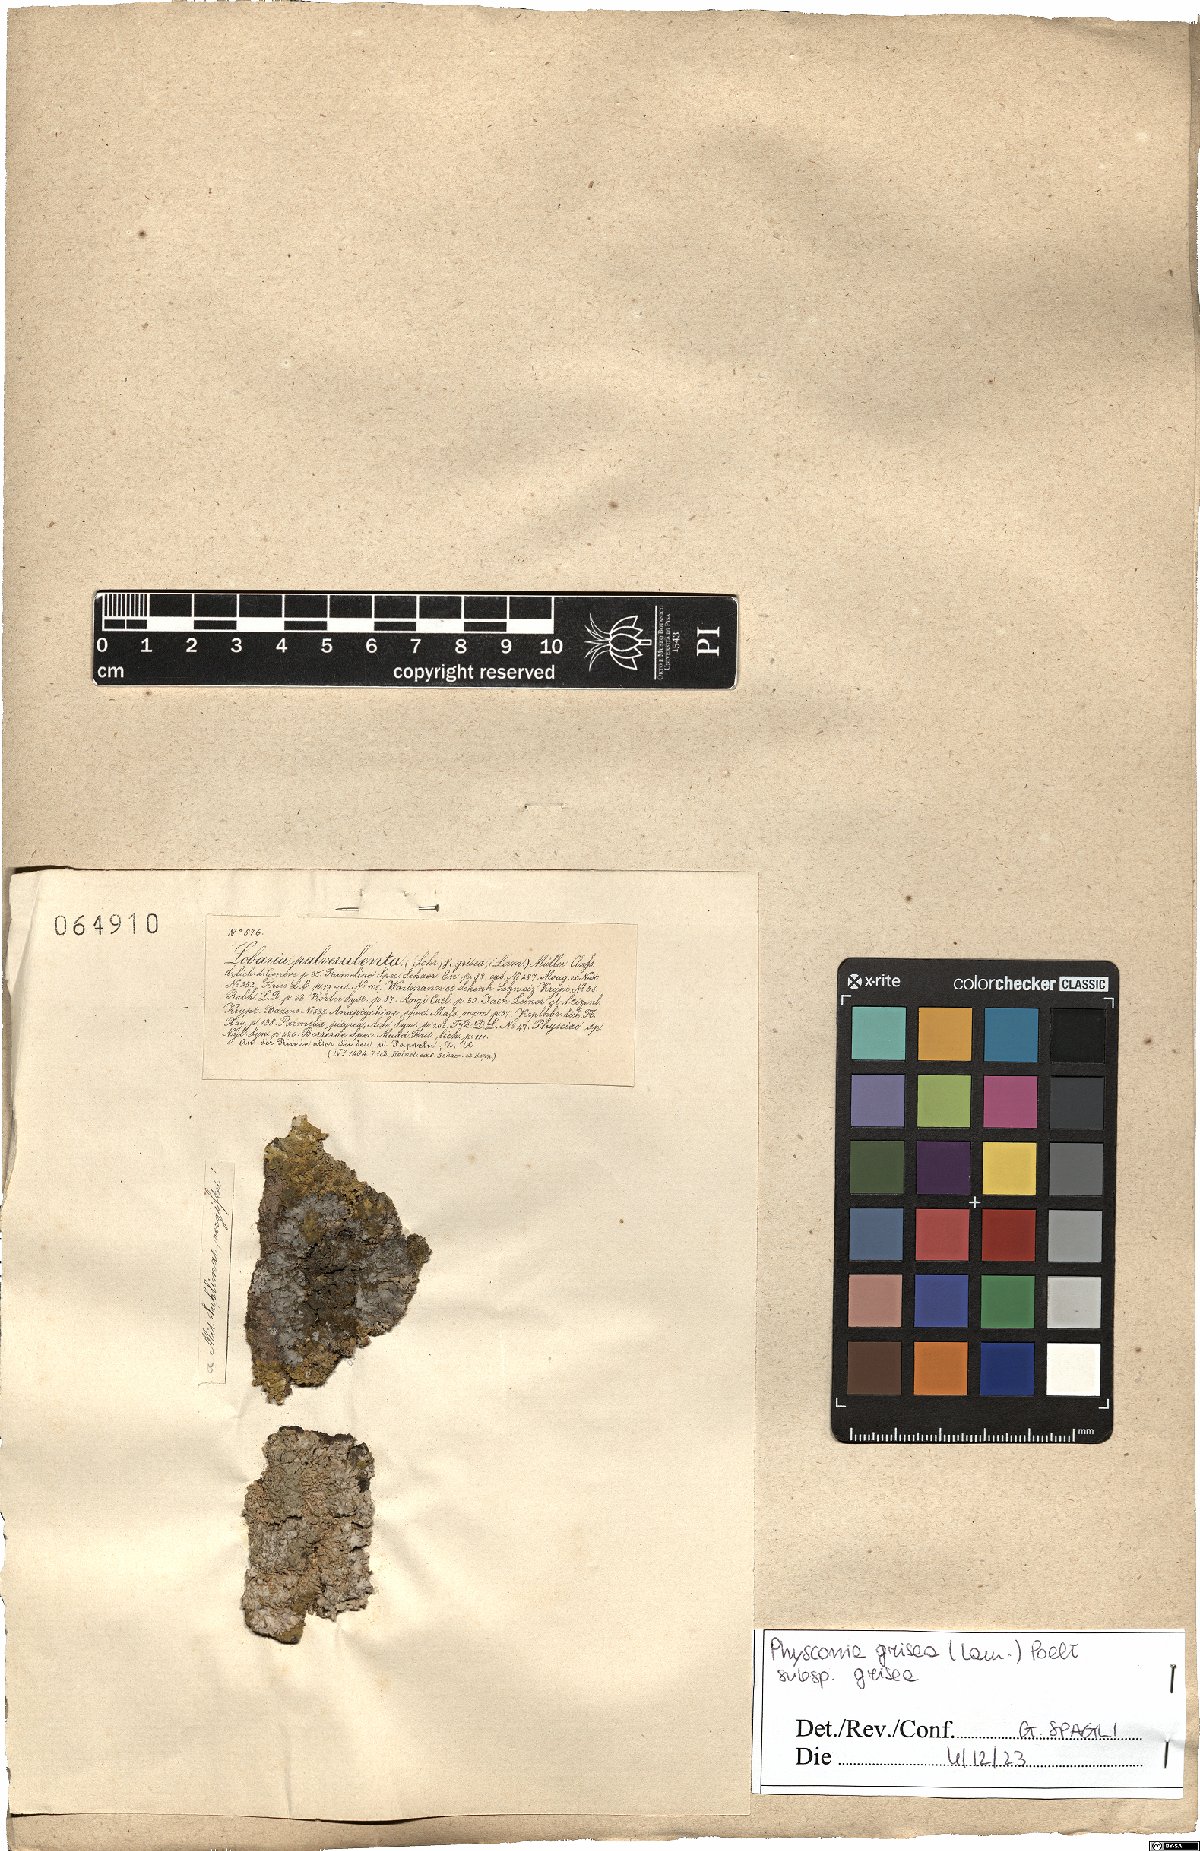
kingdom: Fungi
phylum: Ascomycota
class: Lecanoromycetes
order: Caliciales
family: Physciaceae
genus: Poeltonia
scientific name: Poeltonia grisea
